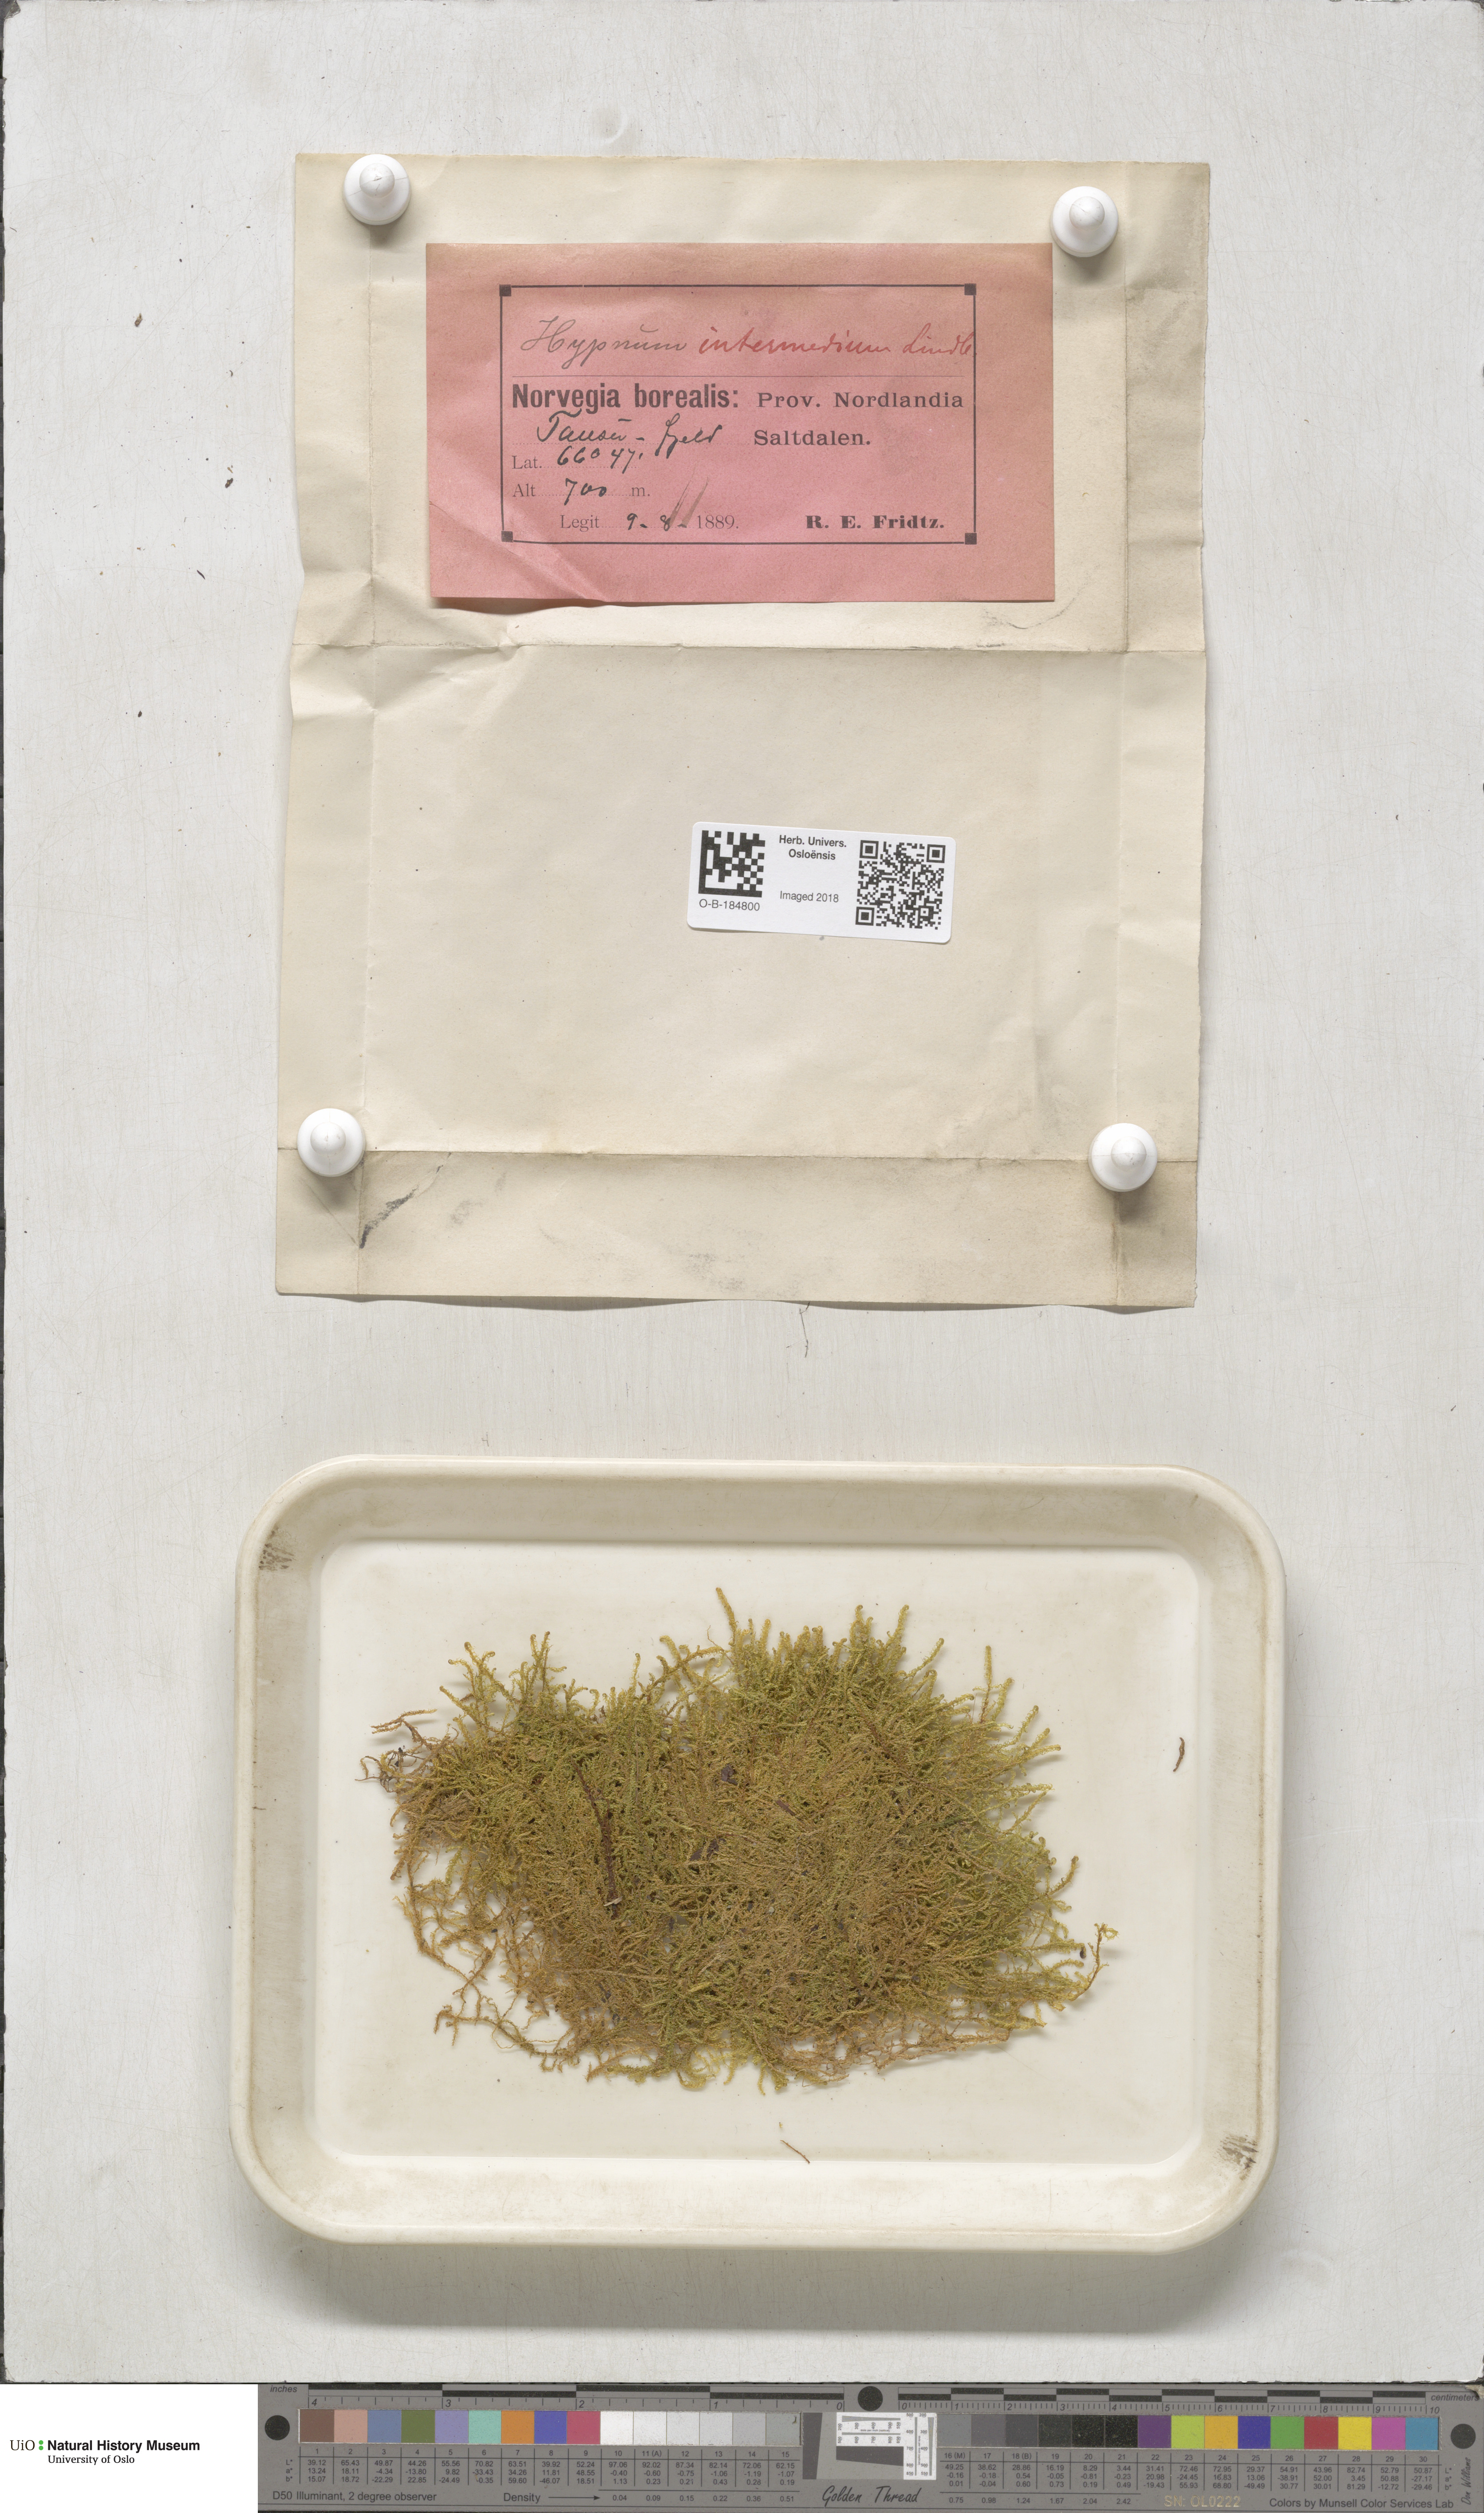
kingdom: Plantae
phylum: Bryophyta
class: Bryopsida
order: Hypnales
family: Scorpidiaceae
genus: Scorpidium
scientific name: Scorpidium cossonii
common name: Cosson's hook moss
